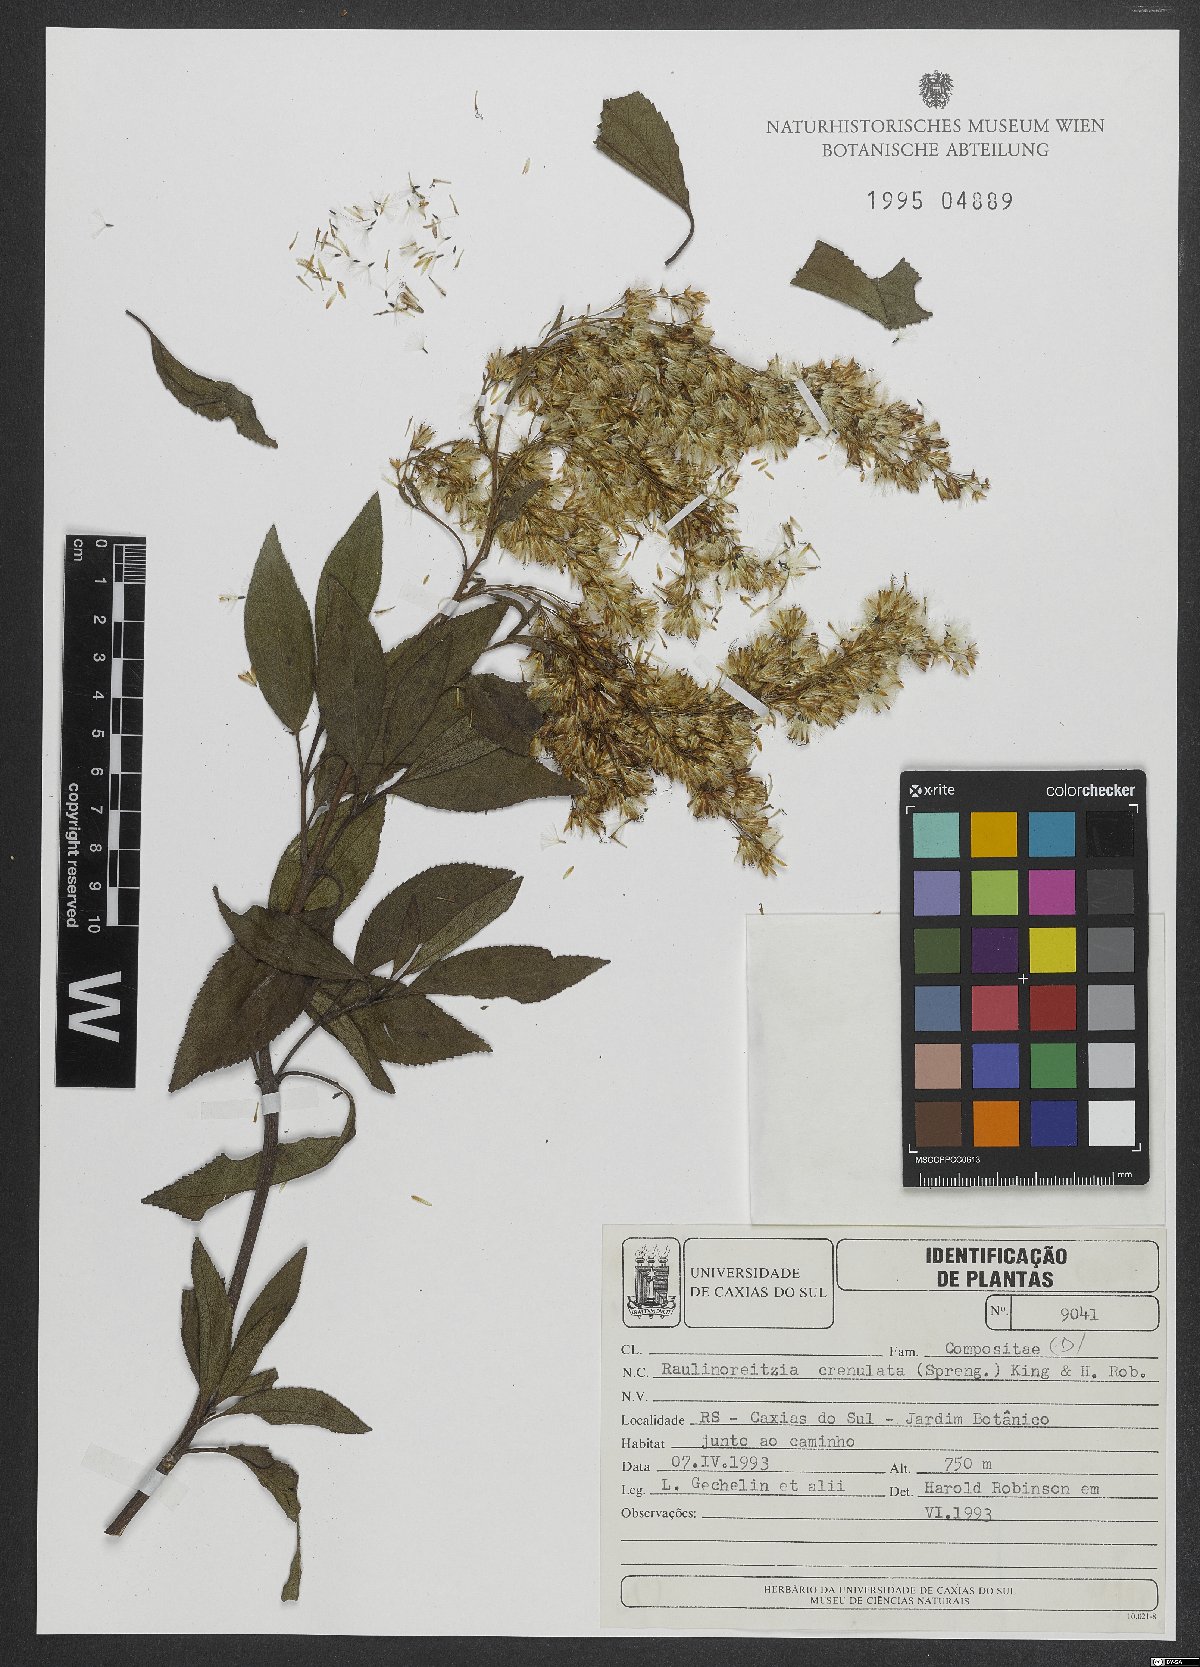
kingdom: Plantae
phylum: Tracheophyta
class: Magnoliopsida
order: Asterales
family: Asteraceae
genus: Raulinoreitzia
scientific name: Raulinoreitzia crenulata
